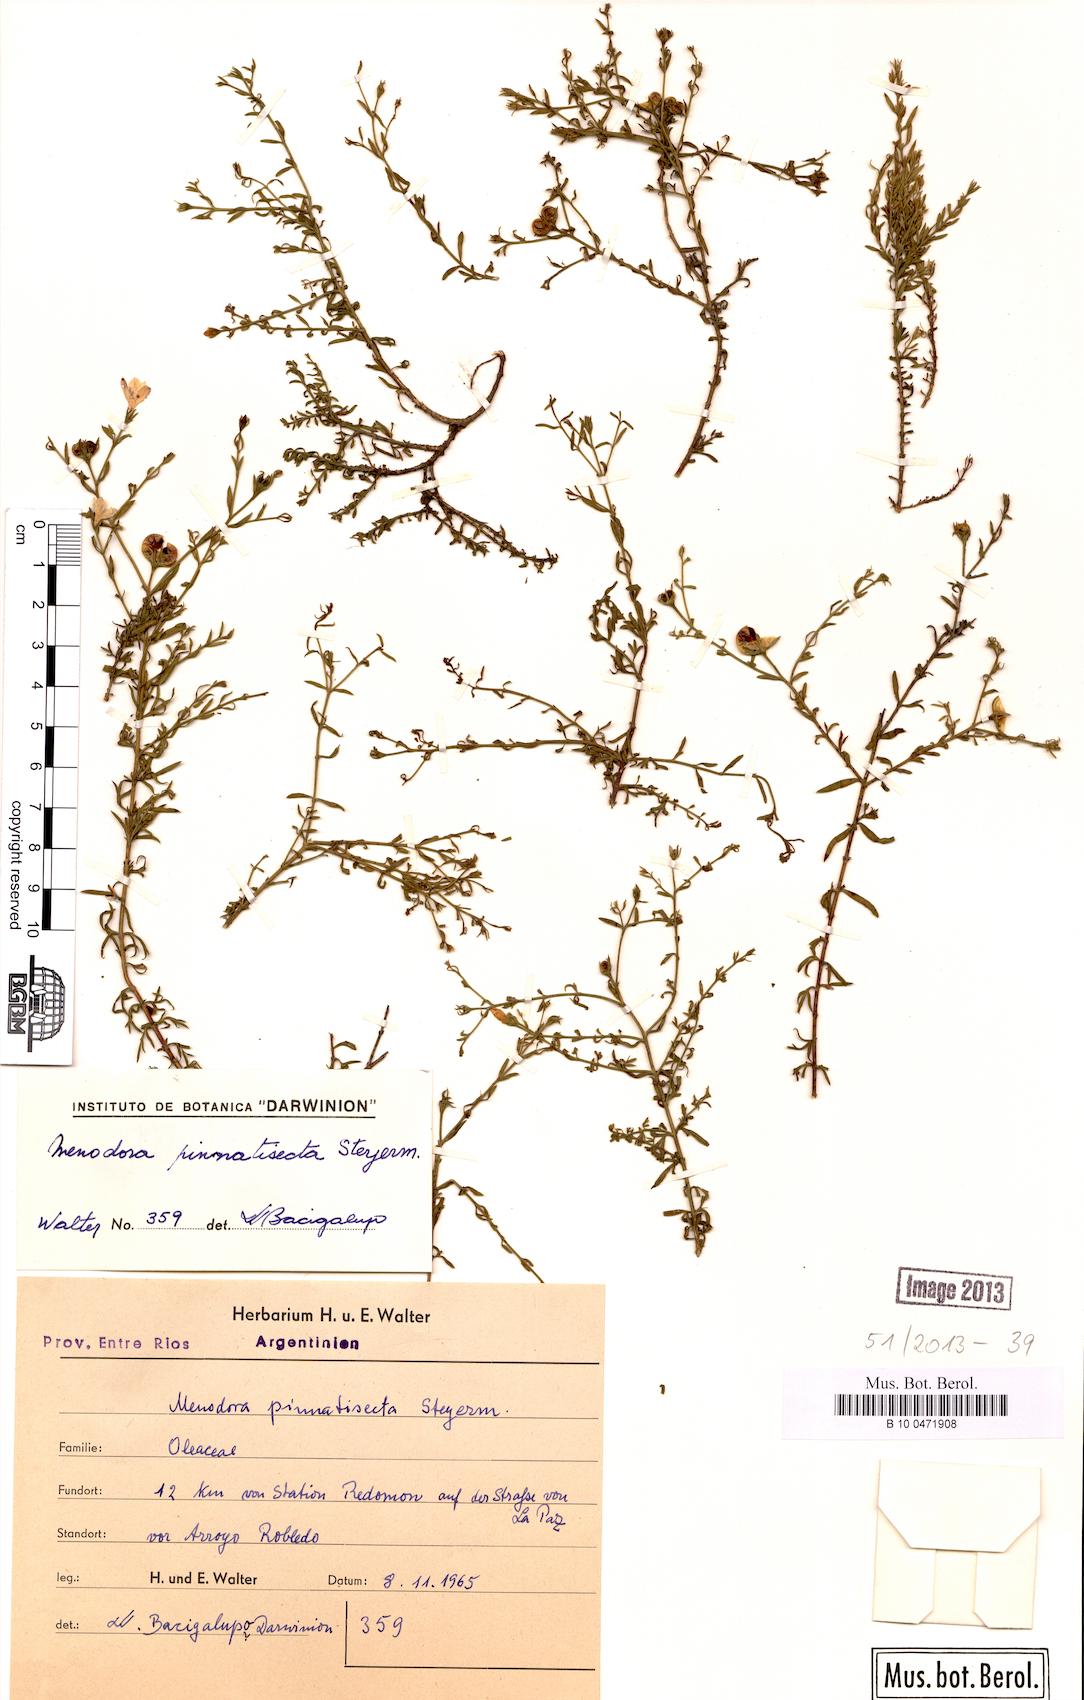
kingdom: Plantae
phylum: Tracheophyta
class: Magnoliopsida
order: Lamiales
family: Oleaceae
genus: Menodora
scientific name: Menodora integrifolia
